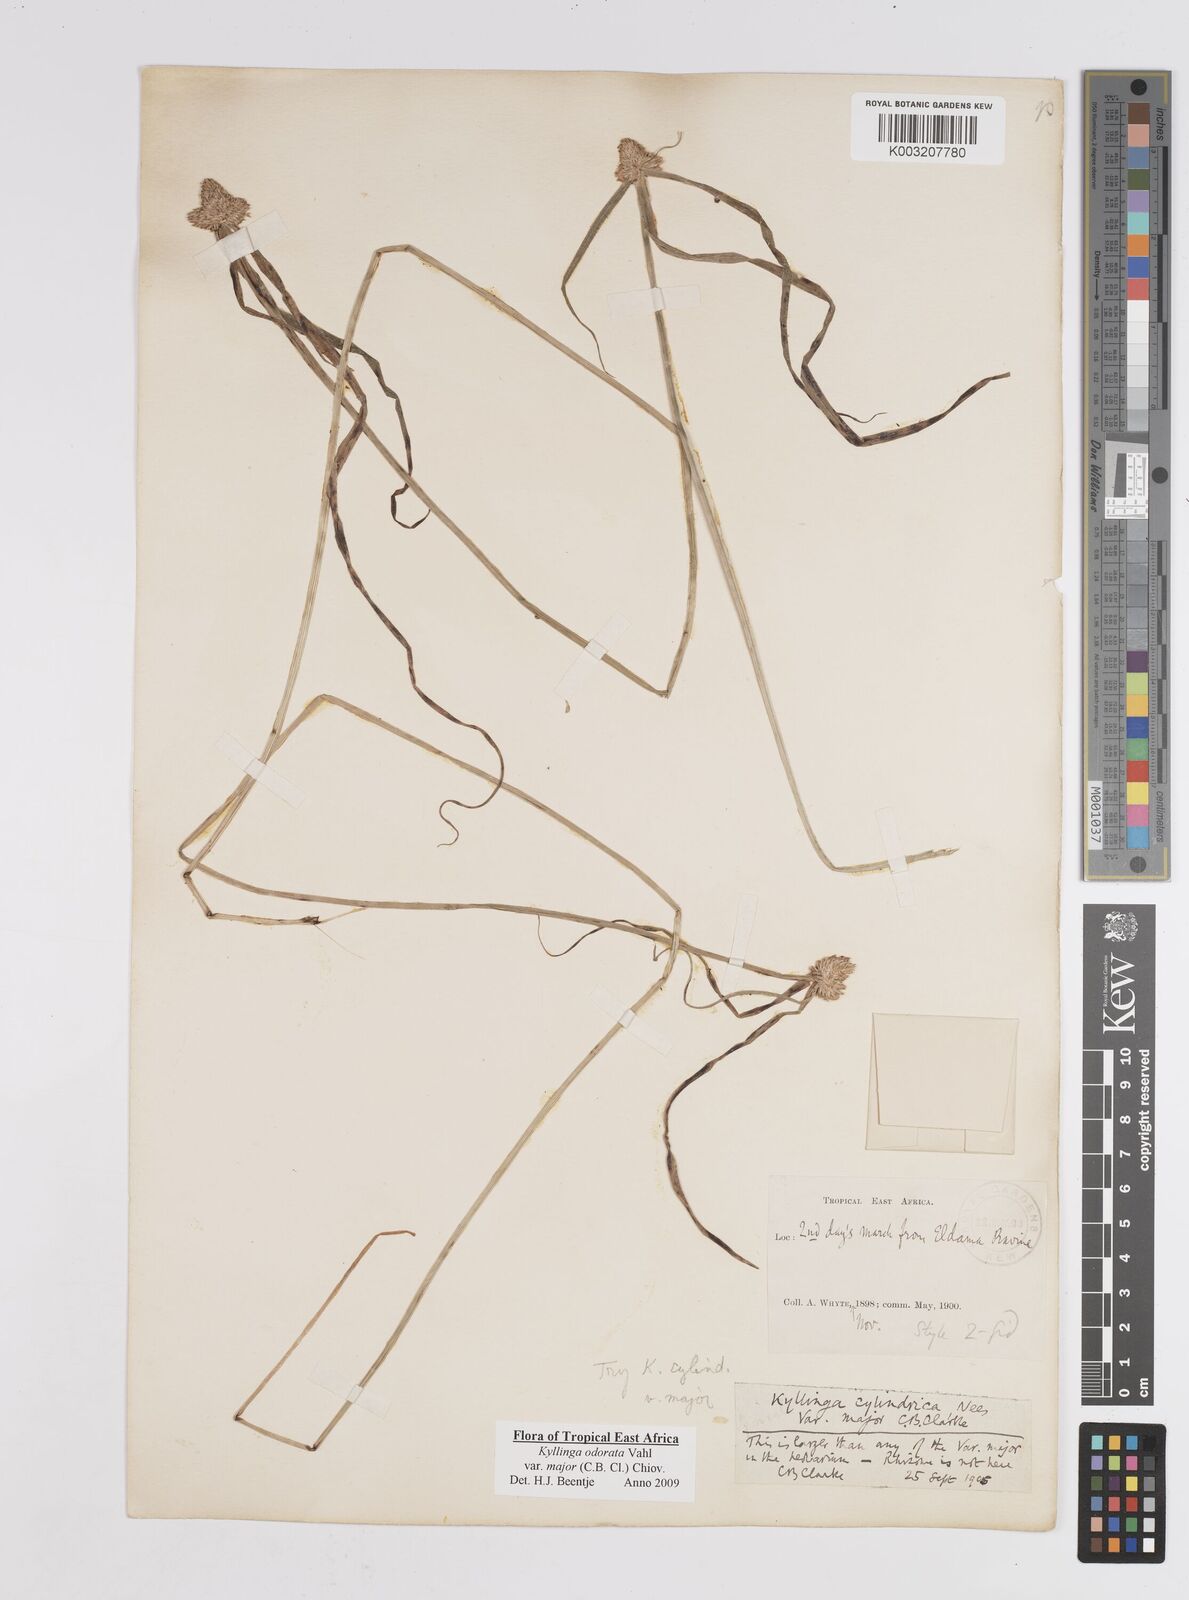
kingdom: Plantae
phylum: Tracheophyta
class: Liliopsida
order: Poales
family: Cyperaceae
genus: Cyperus
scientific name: Cyperus
